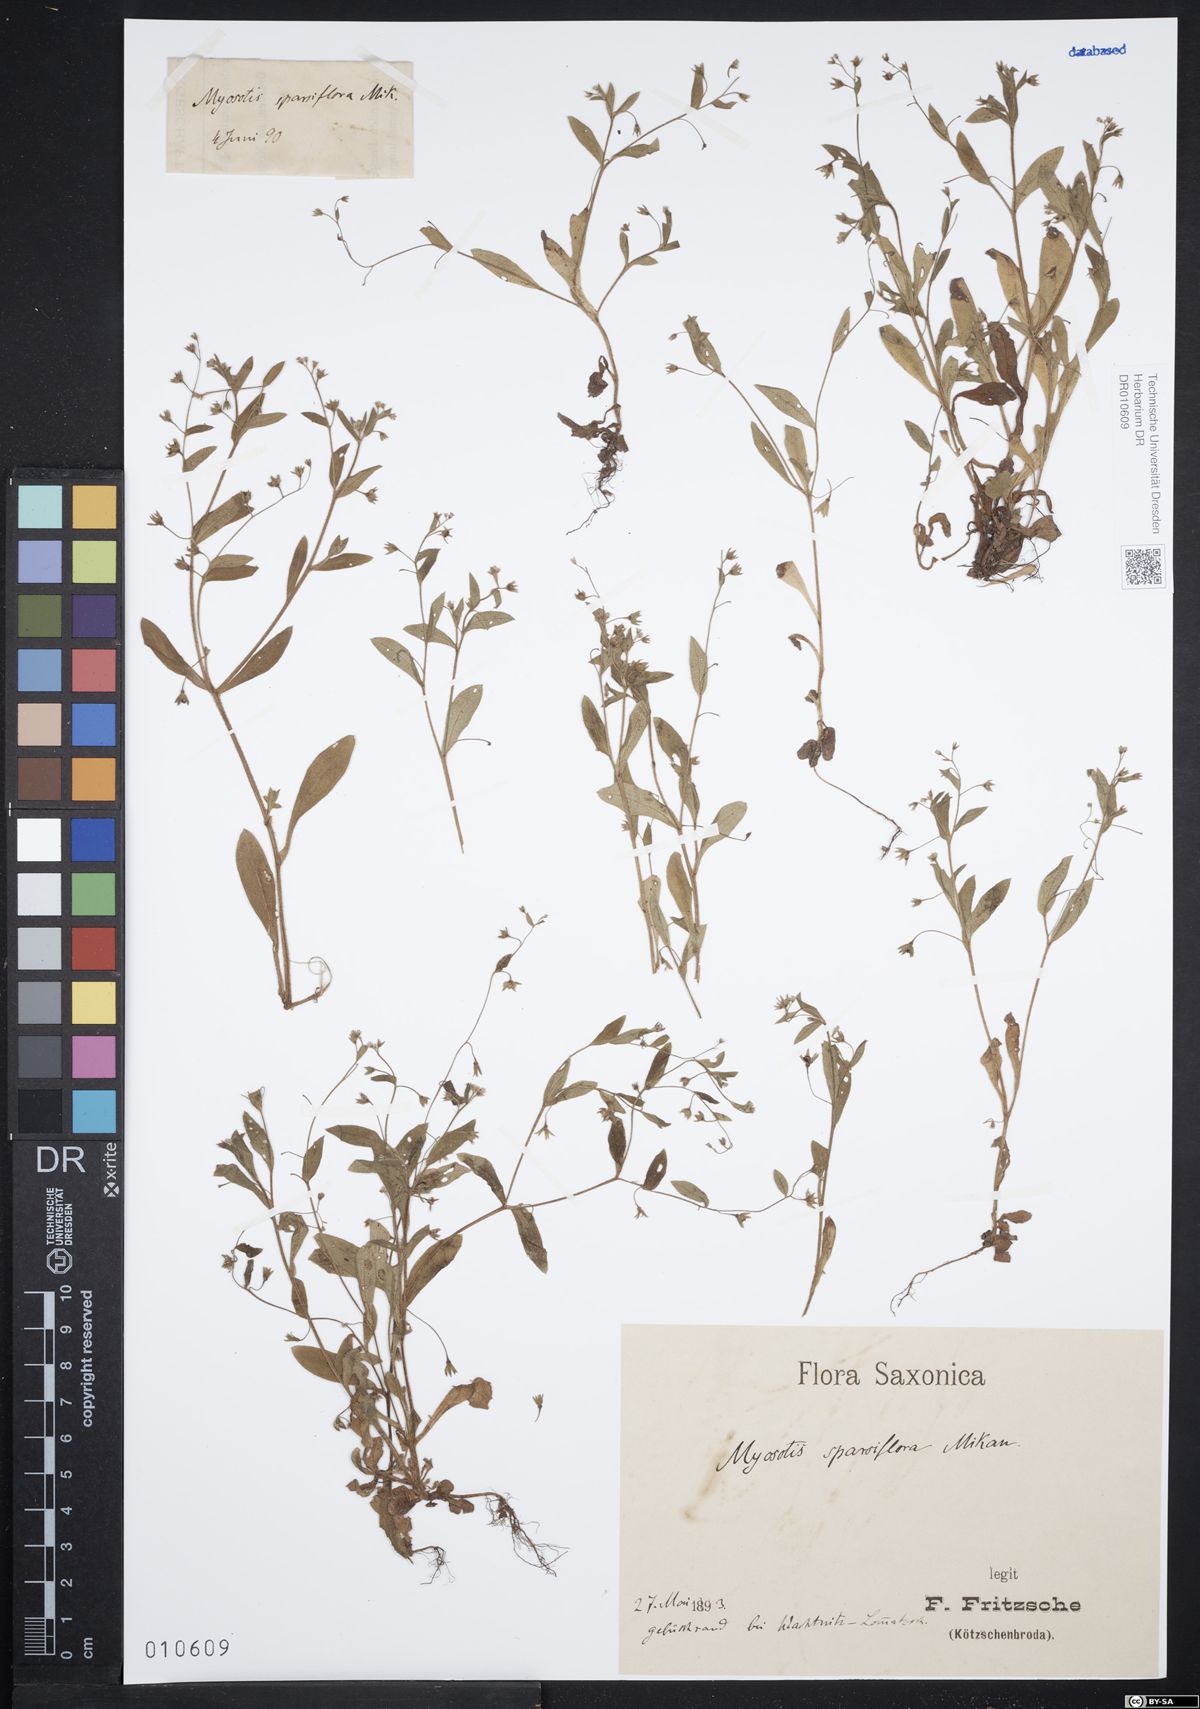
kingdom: Plantae
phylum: Tracheophyta
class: Magnoliopsida
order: Boraginales
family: Boraginaceae
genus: Myosotis
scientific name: Myosotis sparsiflora
